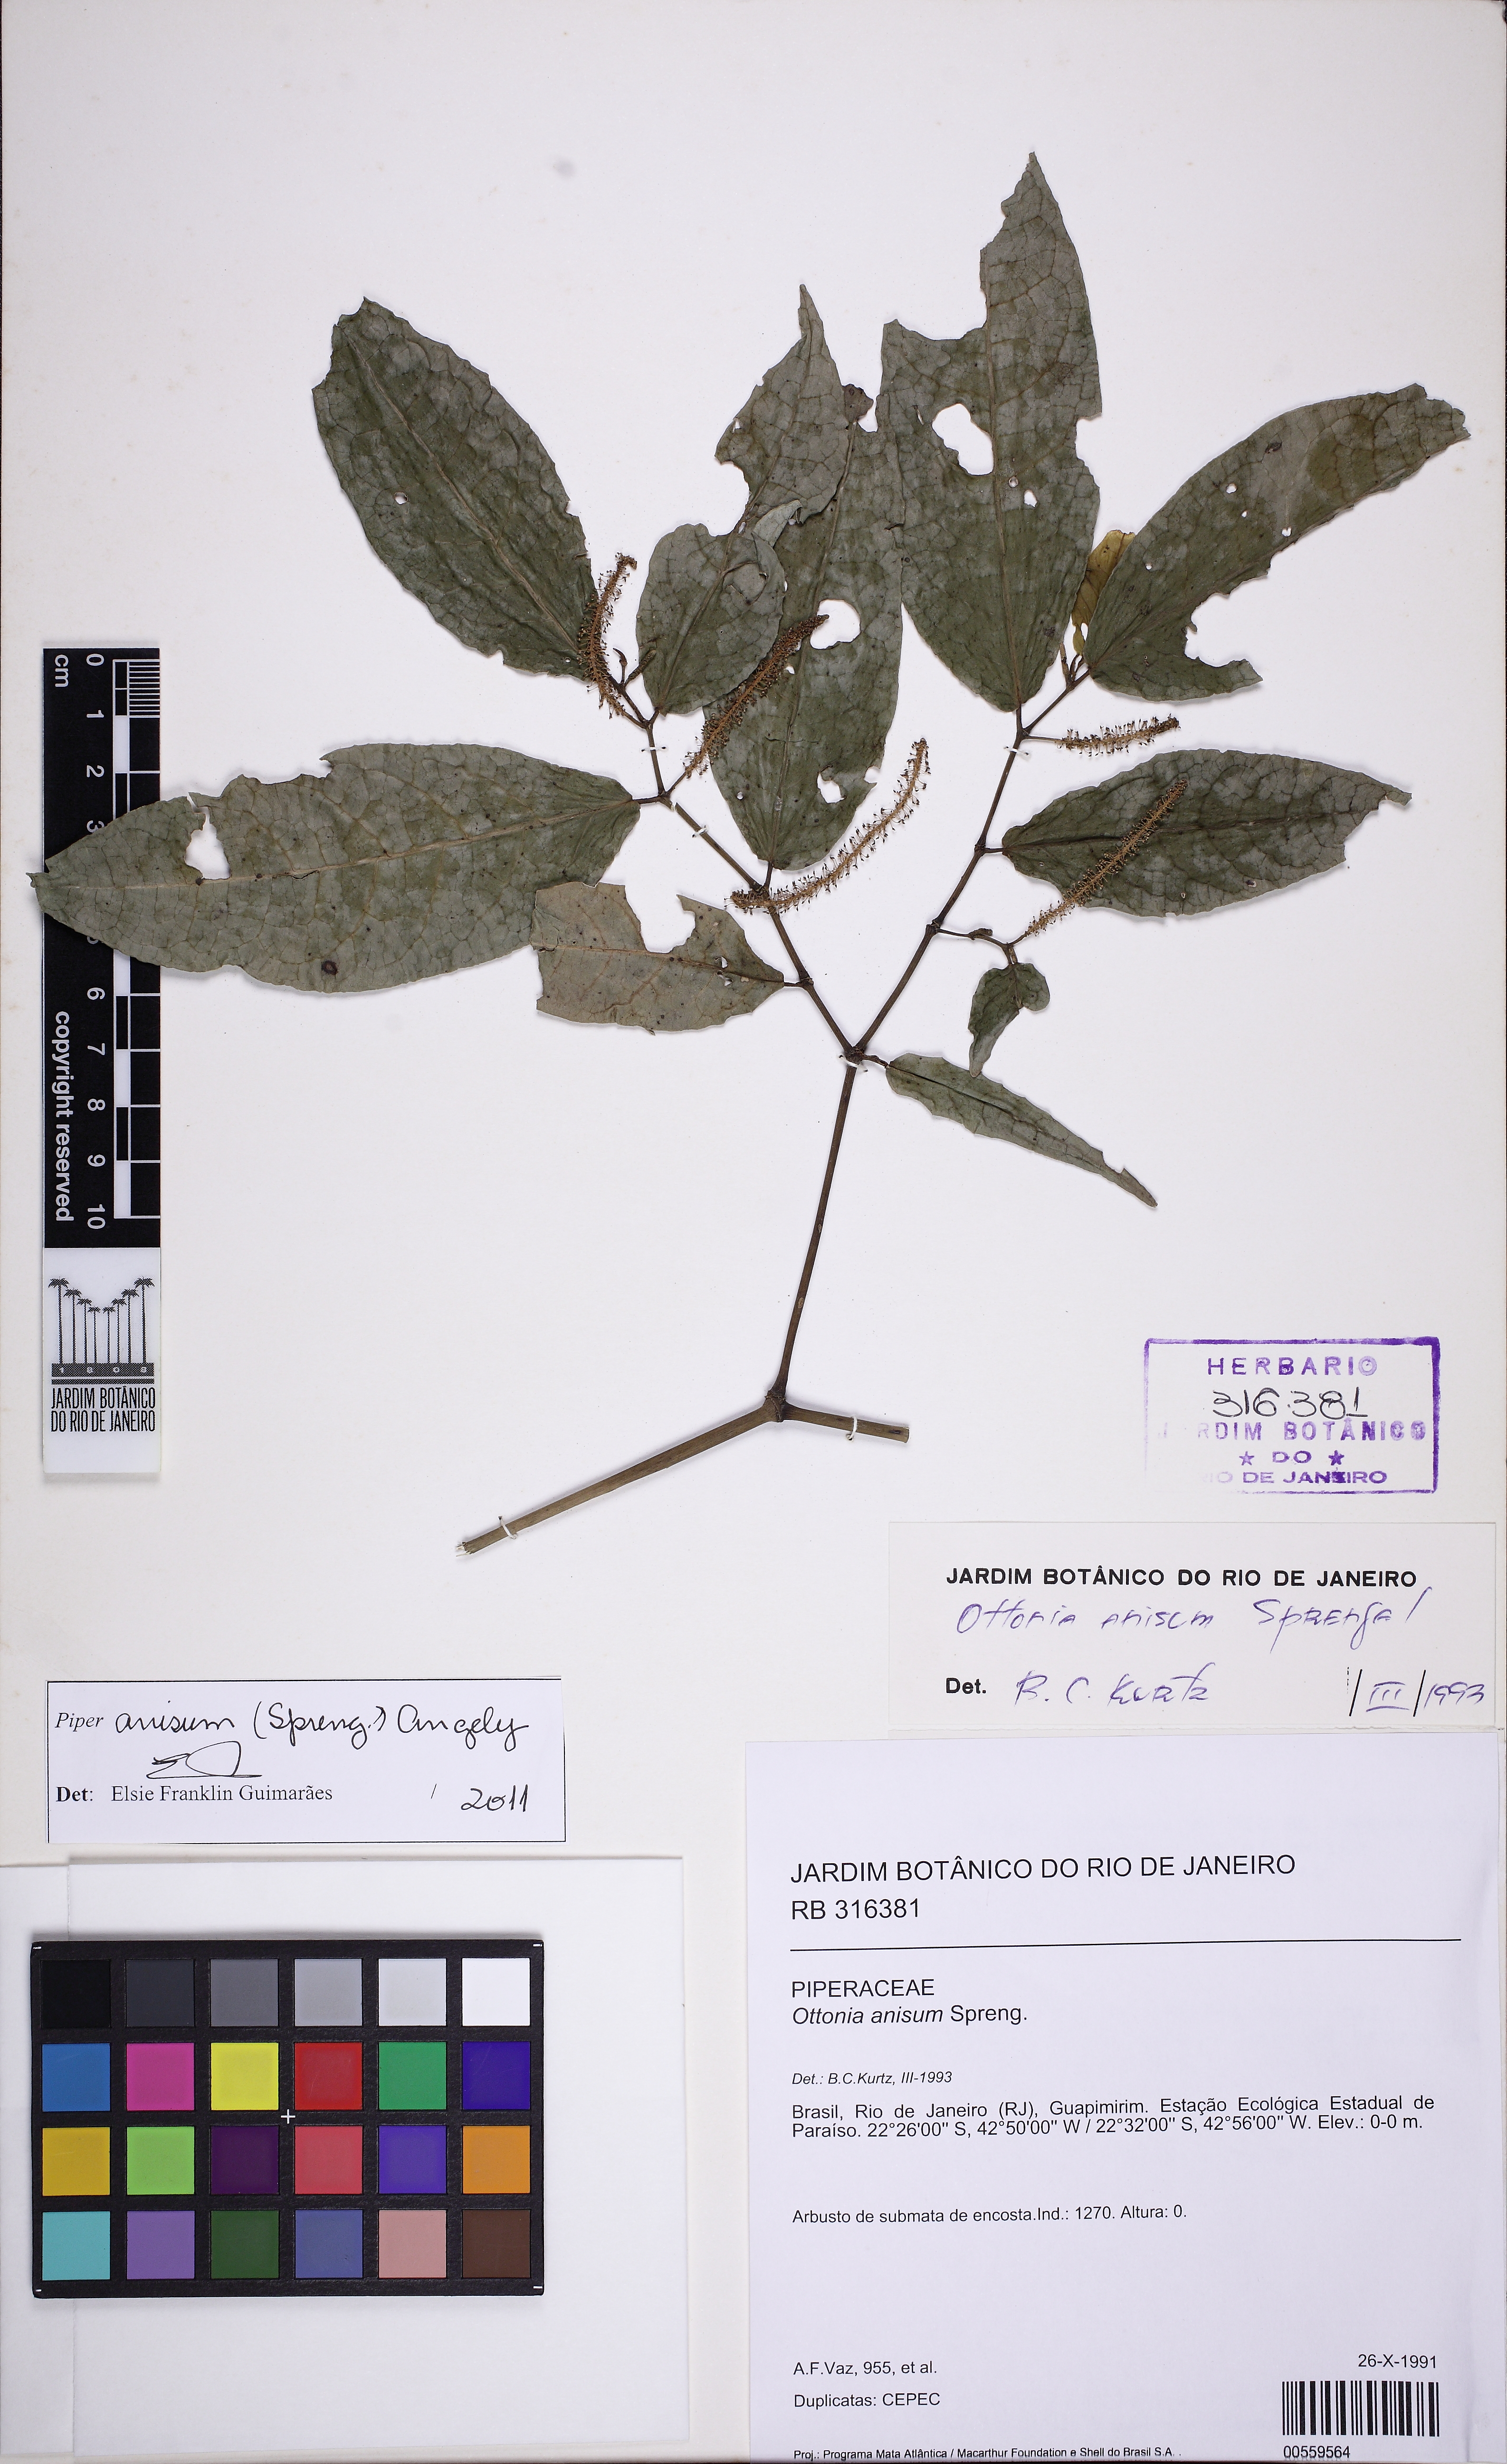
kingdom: Plantae
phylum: Tracheophyta
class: Magnoliopsida
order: Piperales
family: Piperaceae
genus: Piper
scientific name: Piper anisum
